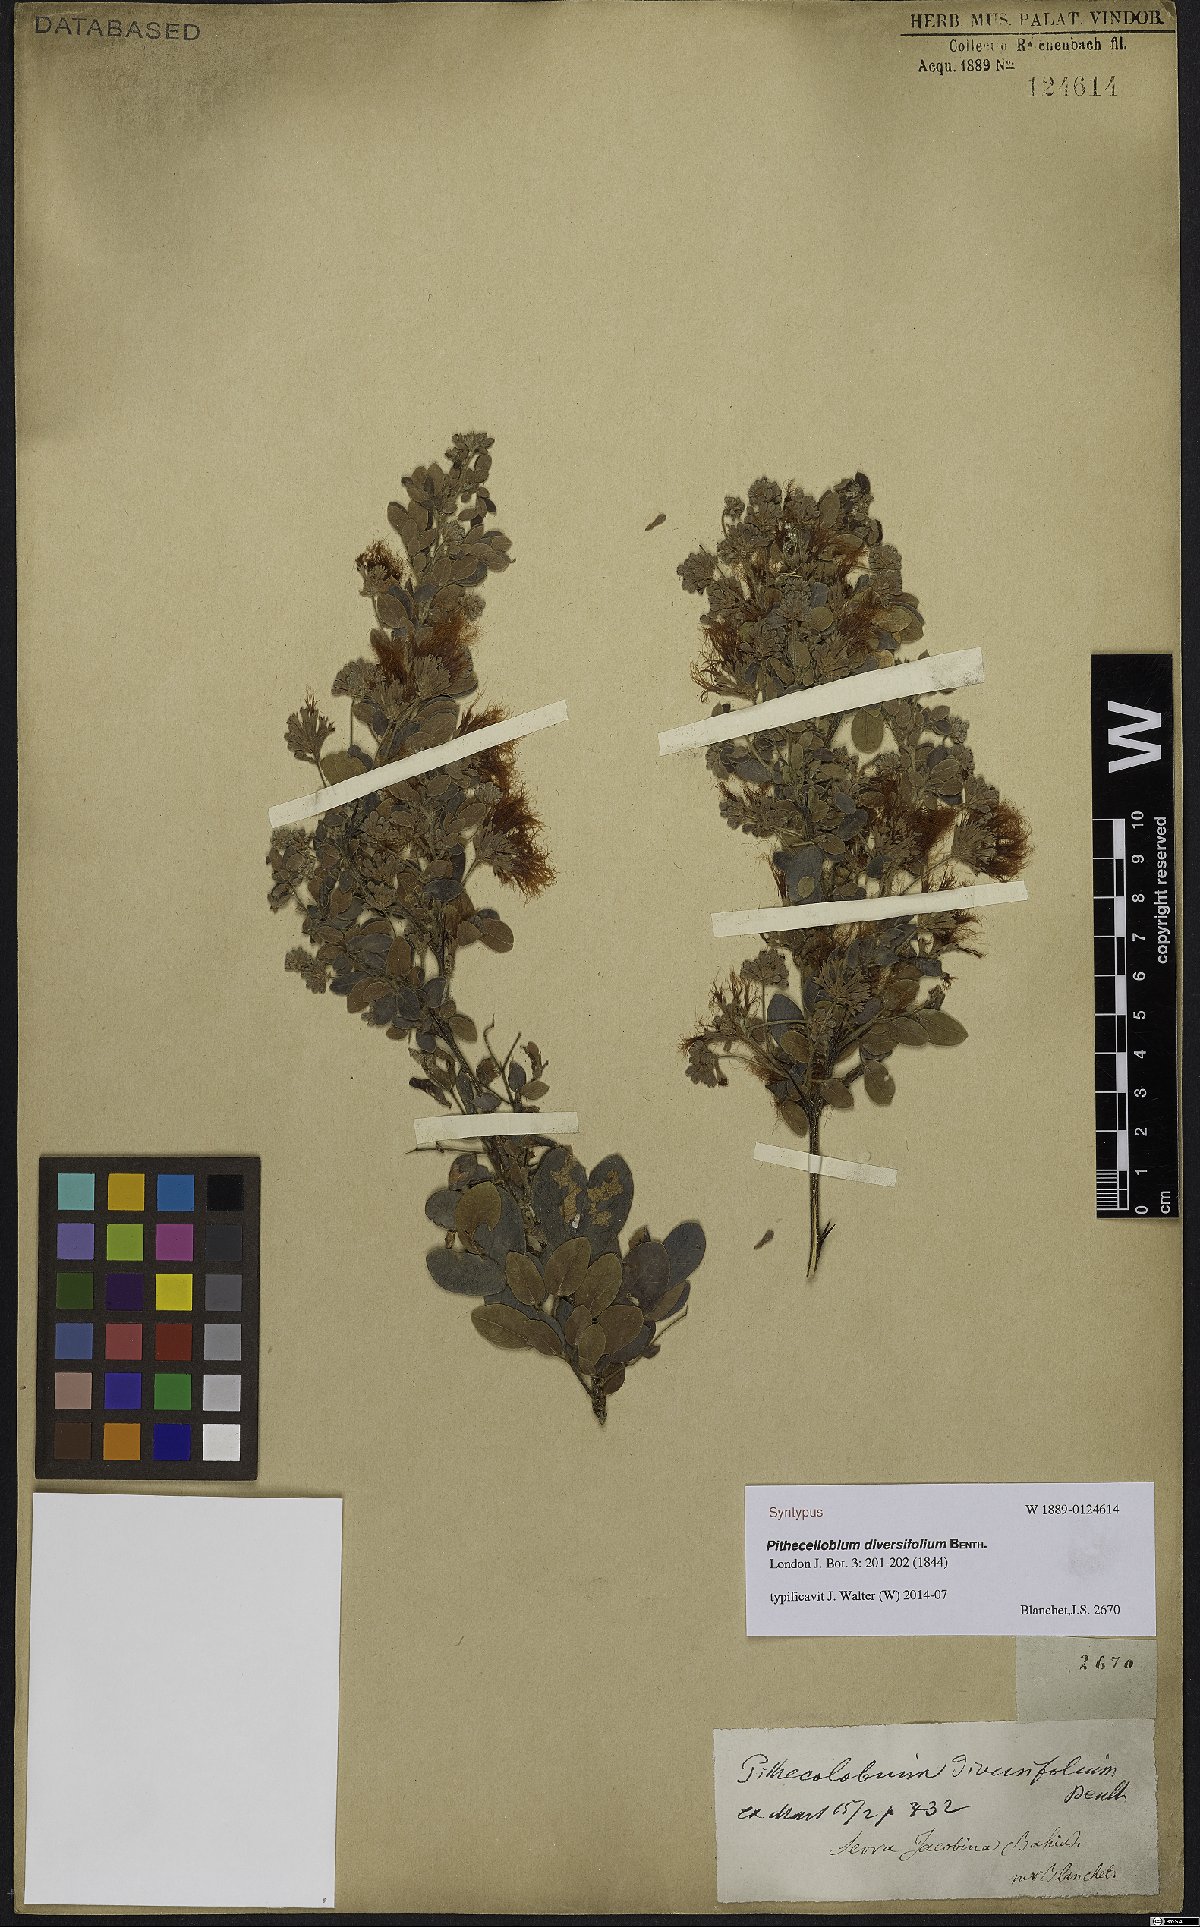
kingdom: Plantae
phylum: Tracheophyta
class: Magnoliopsida
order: Fabales
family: Fabaceae
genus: Pithecellobium
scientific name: Pithecellobium diversifolium
